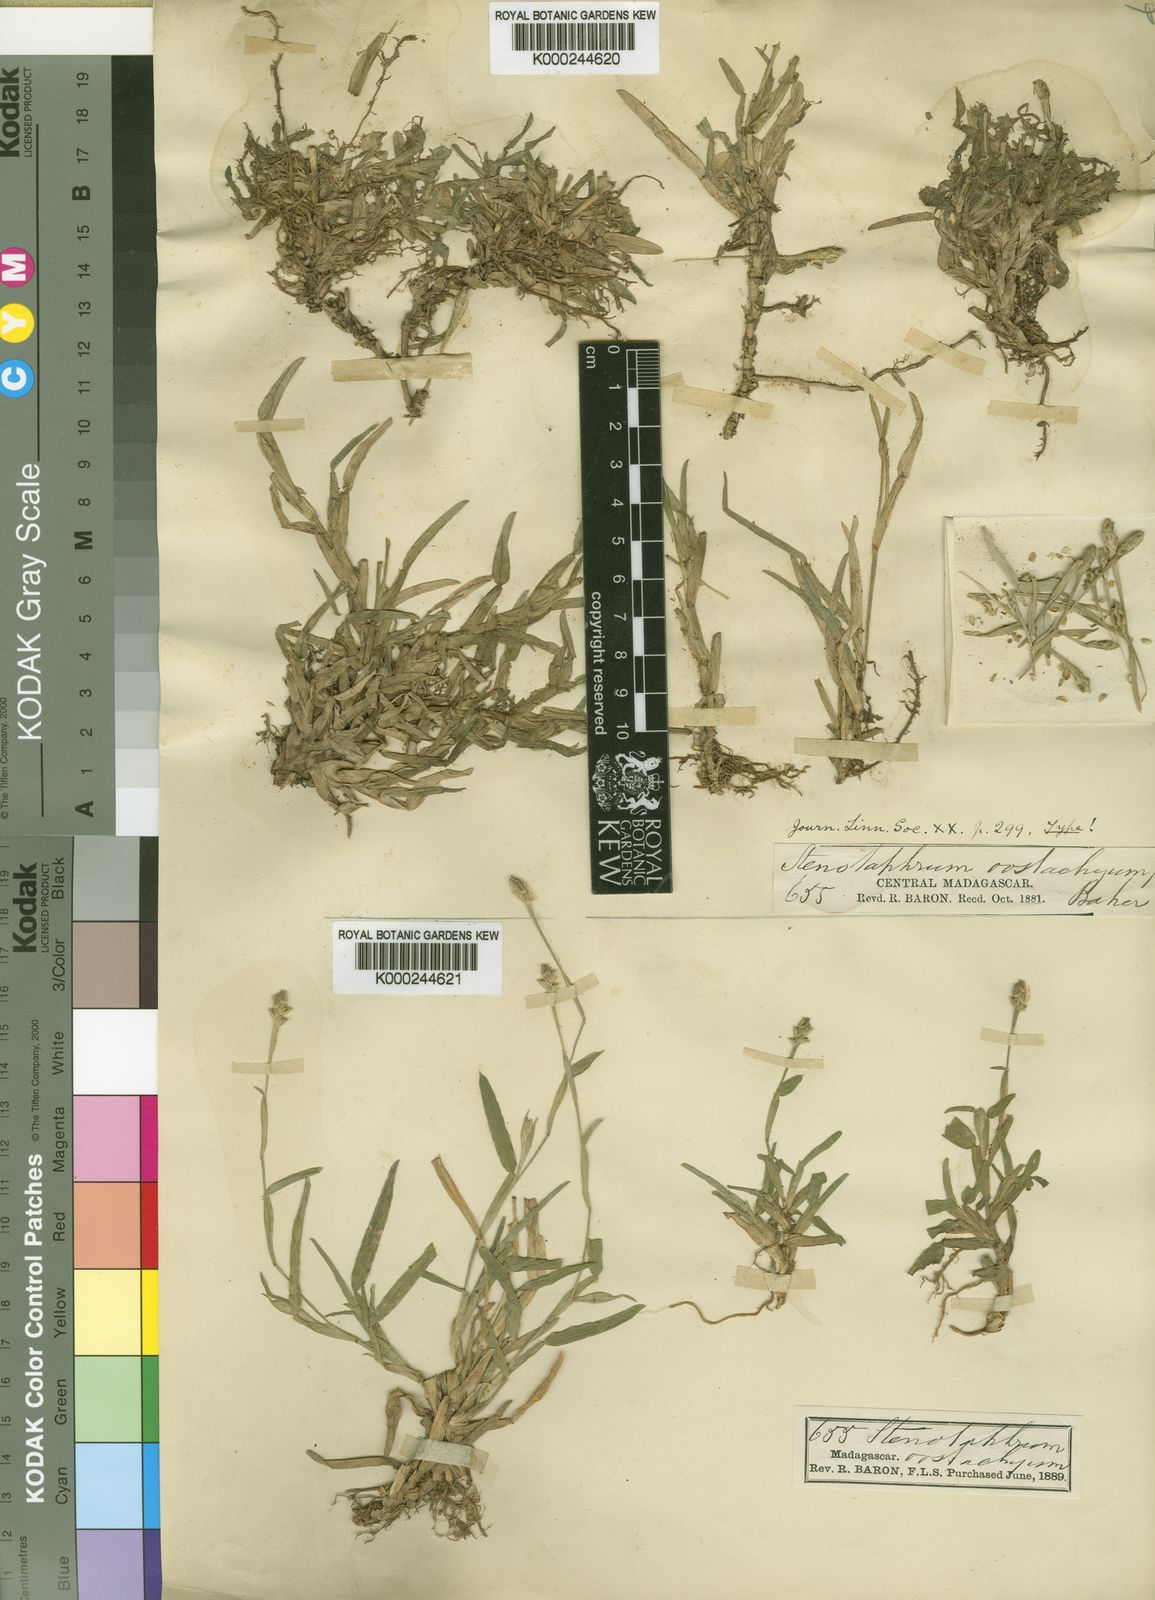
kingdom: Plantae
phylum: Tracheophyta
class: Liliopsida
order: Poales
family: Poaceae
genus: Stenotaphrum
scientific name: Stenotaphrum oostachyum
